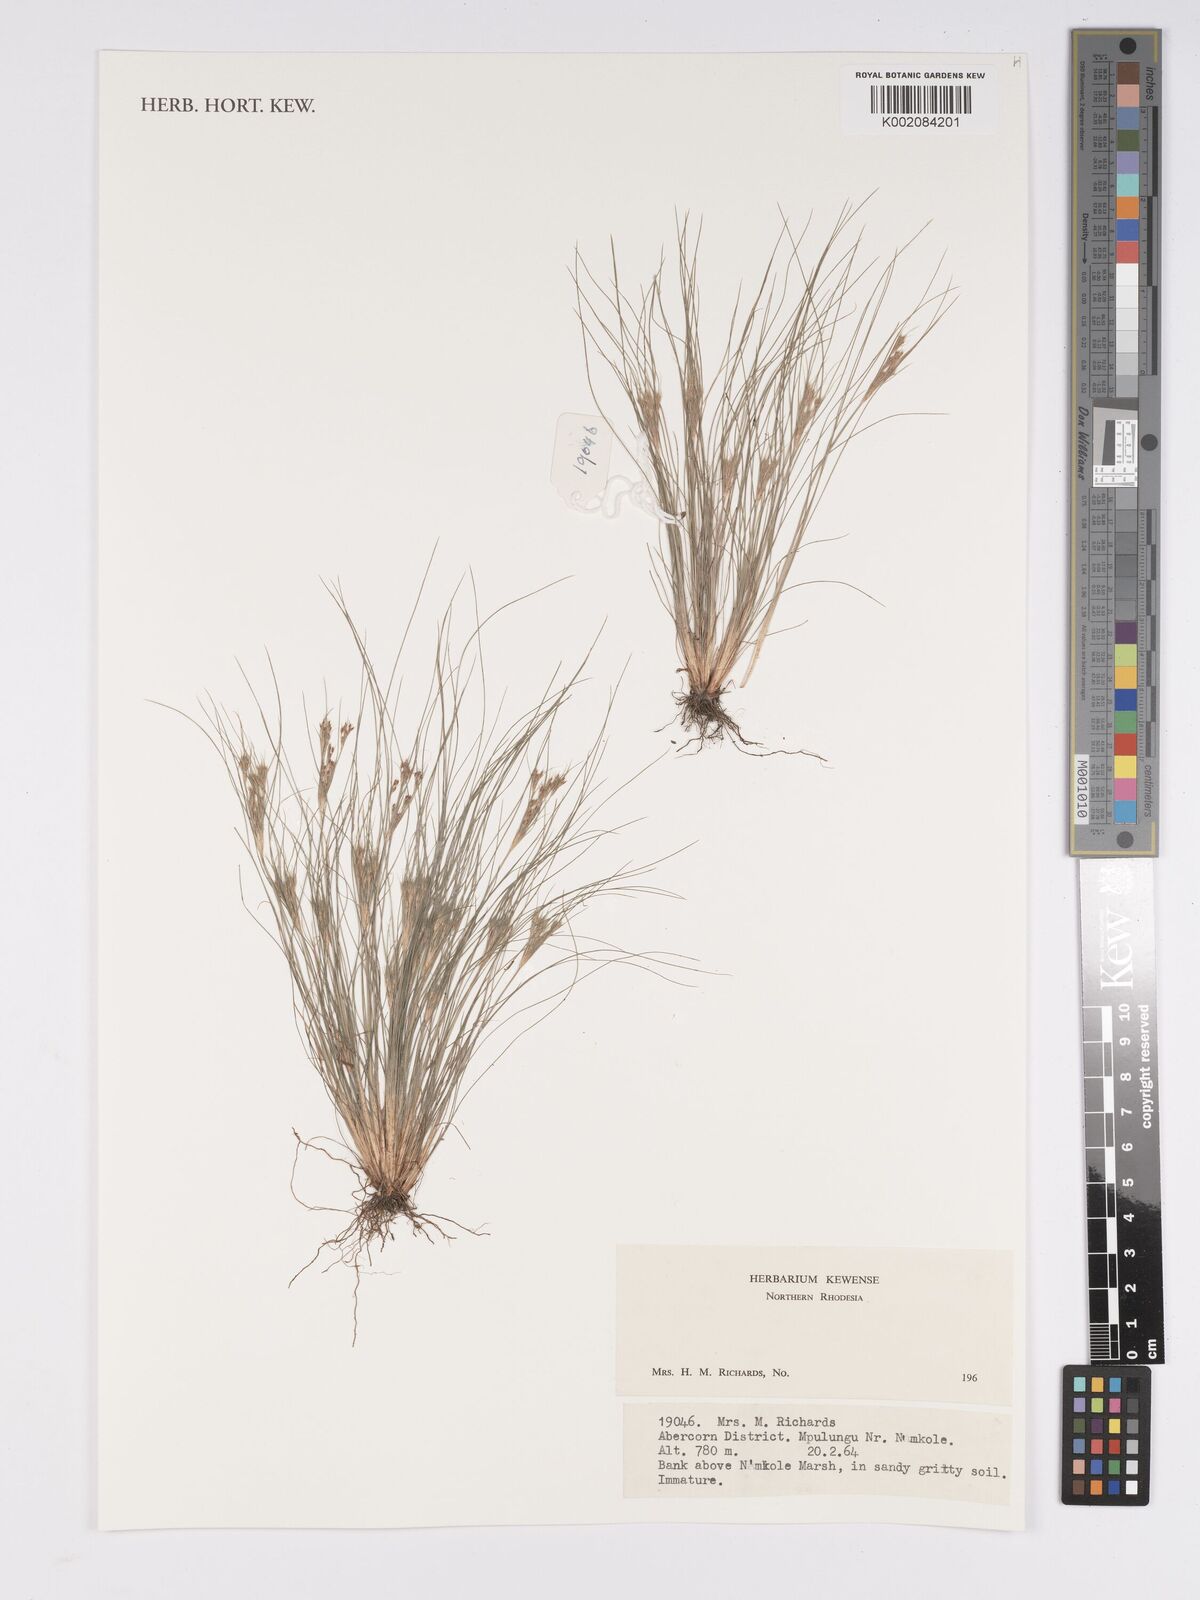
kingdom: Plantae
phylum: Tracheophyta
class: Liliopsida
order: Poales
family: Cyperaceae
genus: Bulbostylis
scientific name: Bulbostylis
